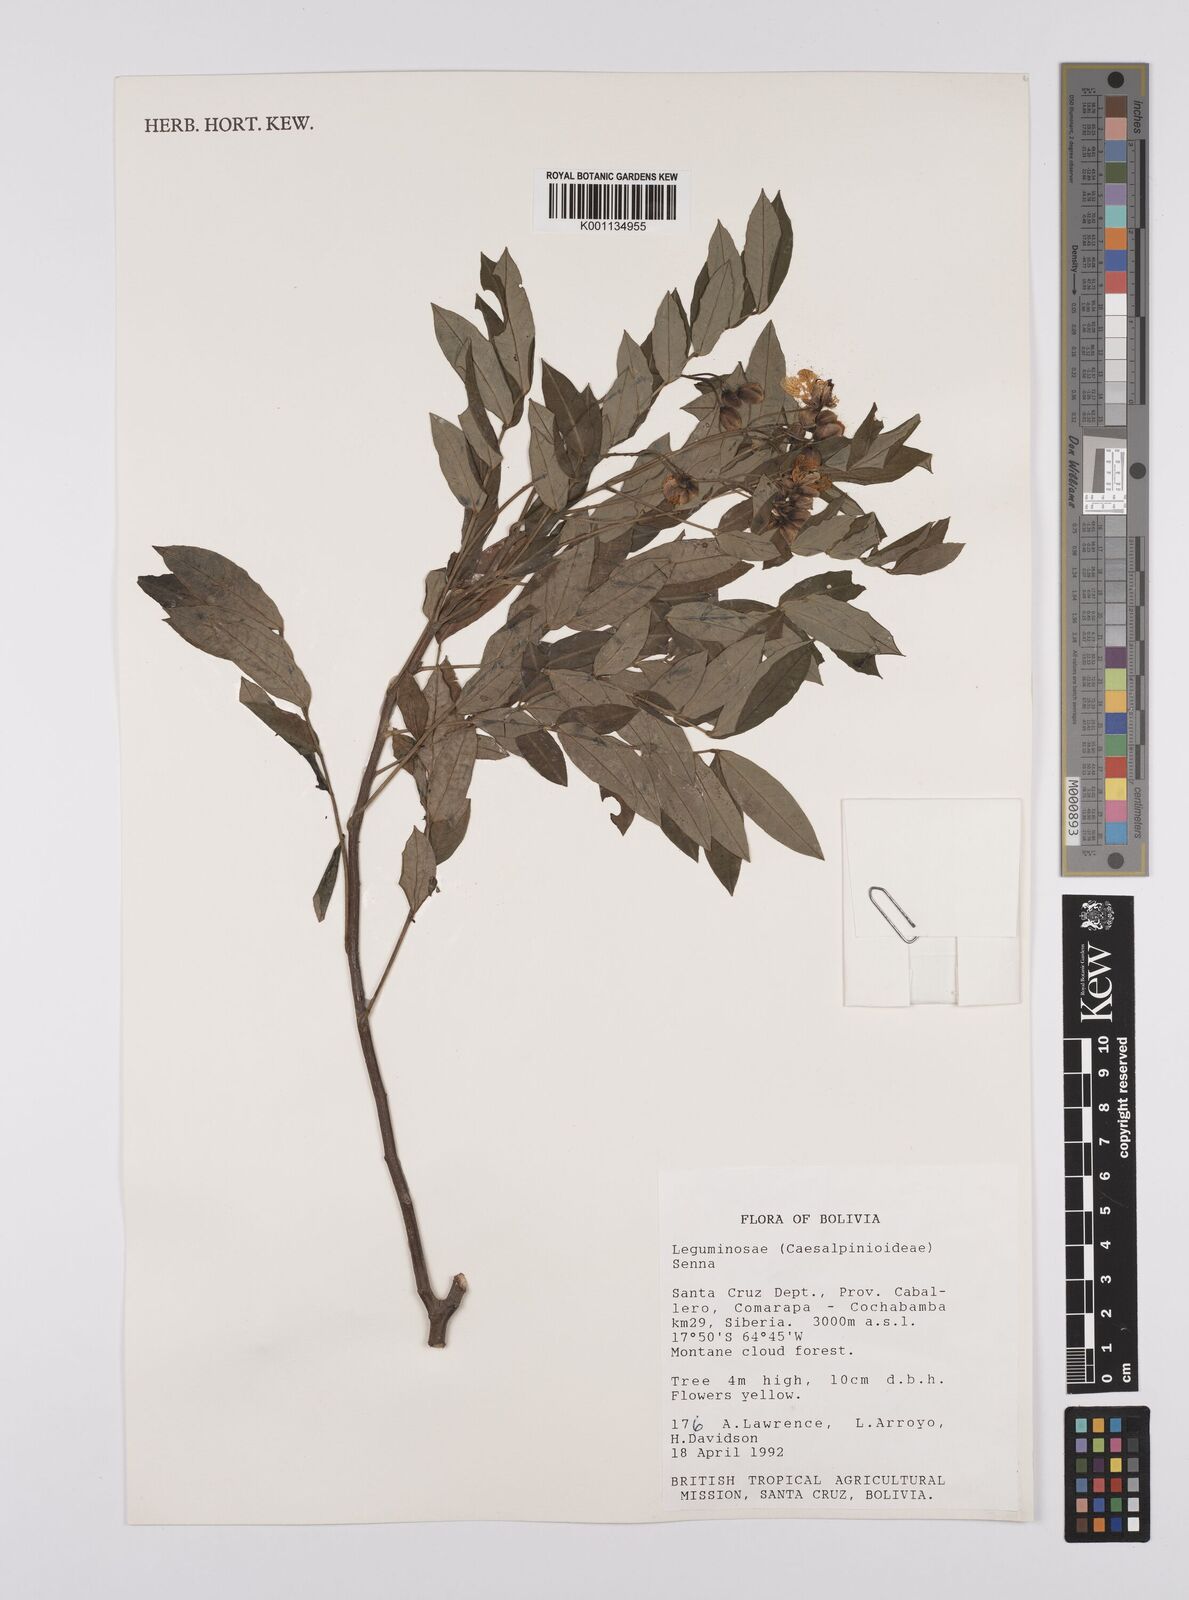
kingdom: Plantae
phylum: Tracheophyta
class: Magnoliopsida
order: Fabales
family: Fabaceae
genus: Senna
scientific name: Senna
